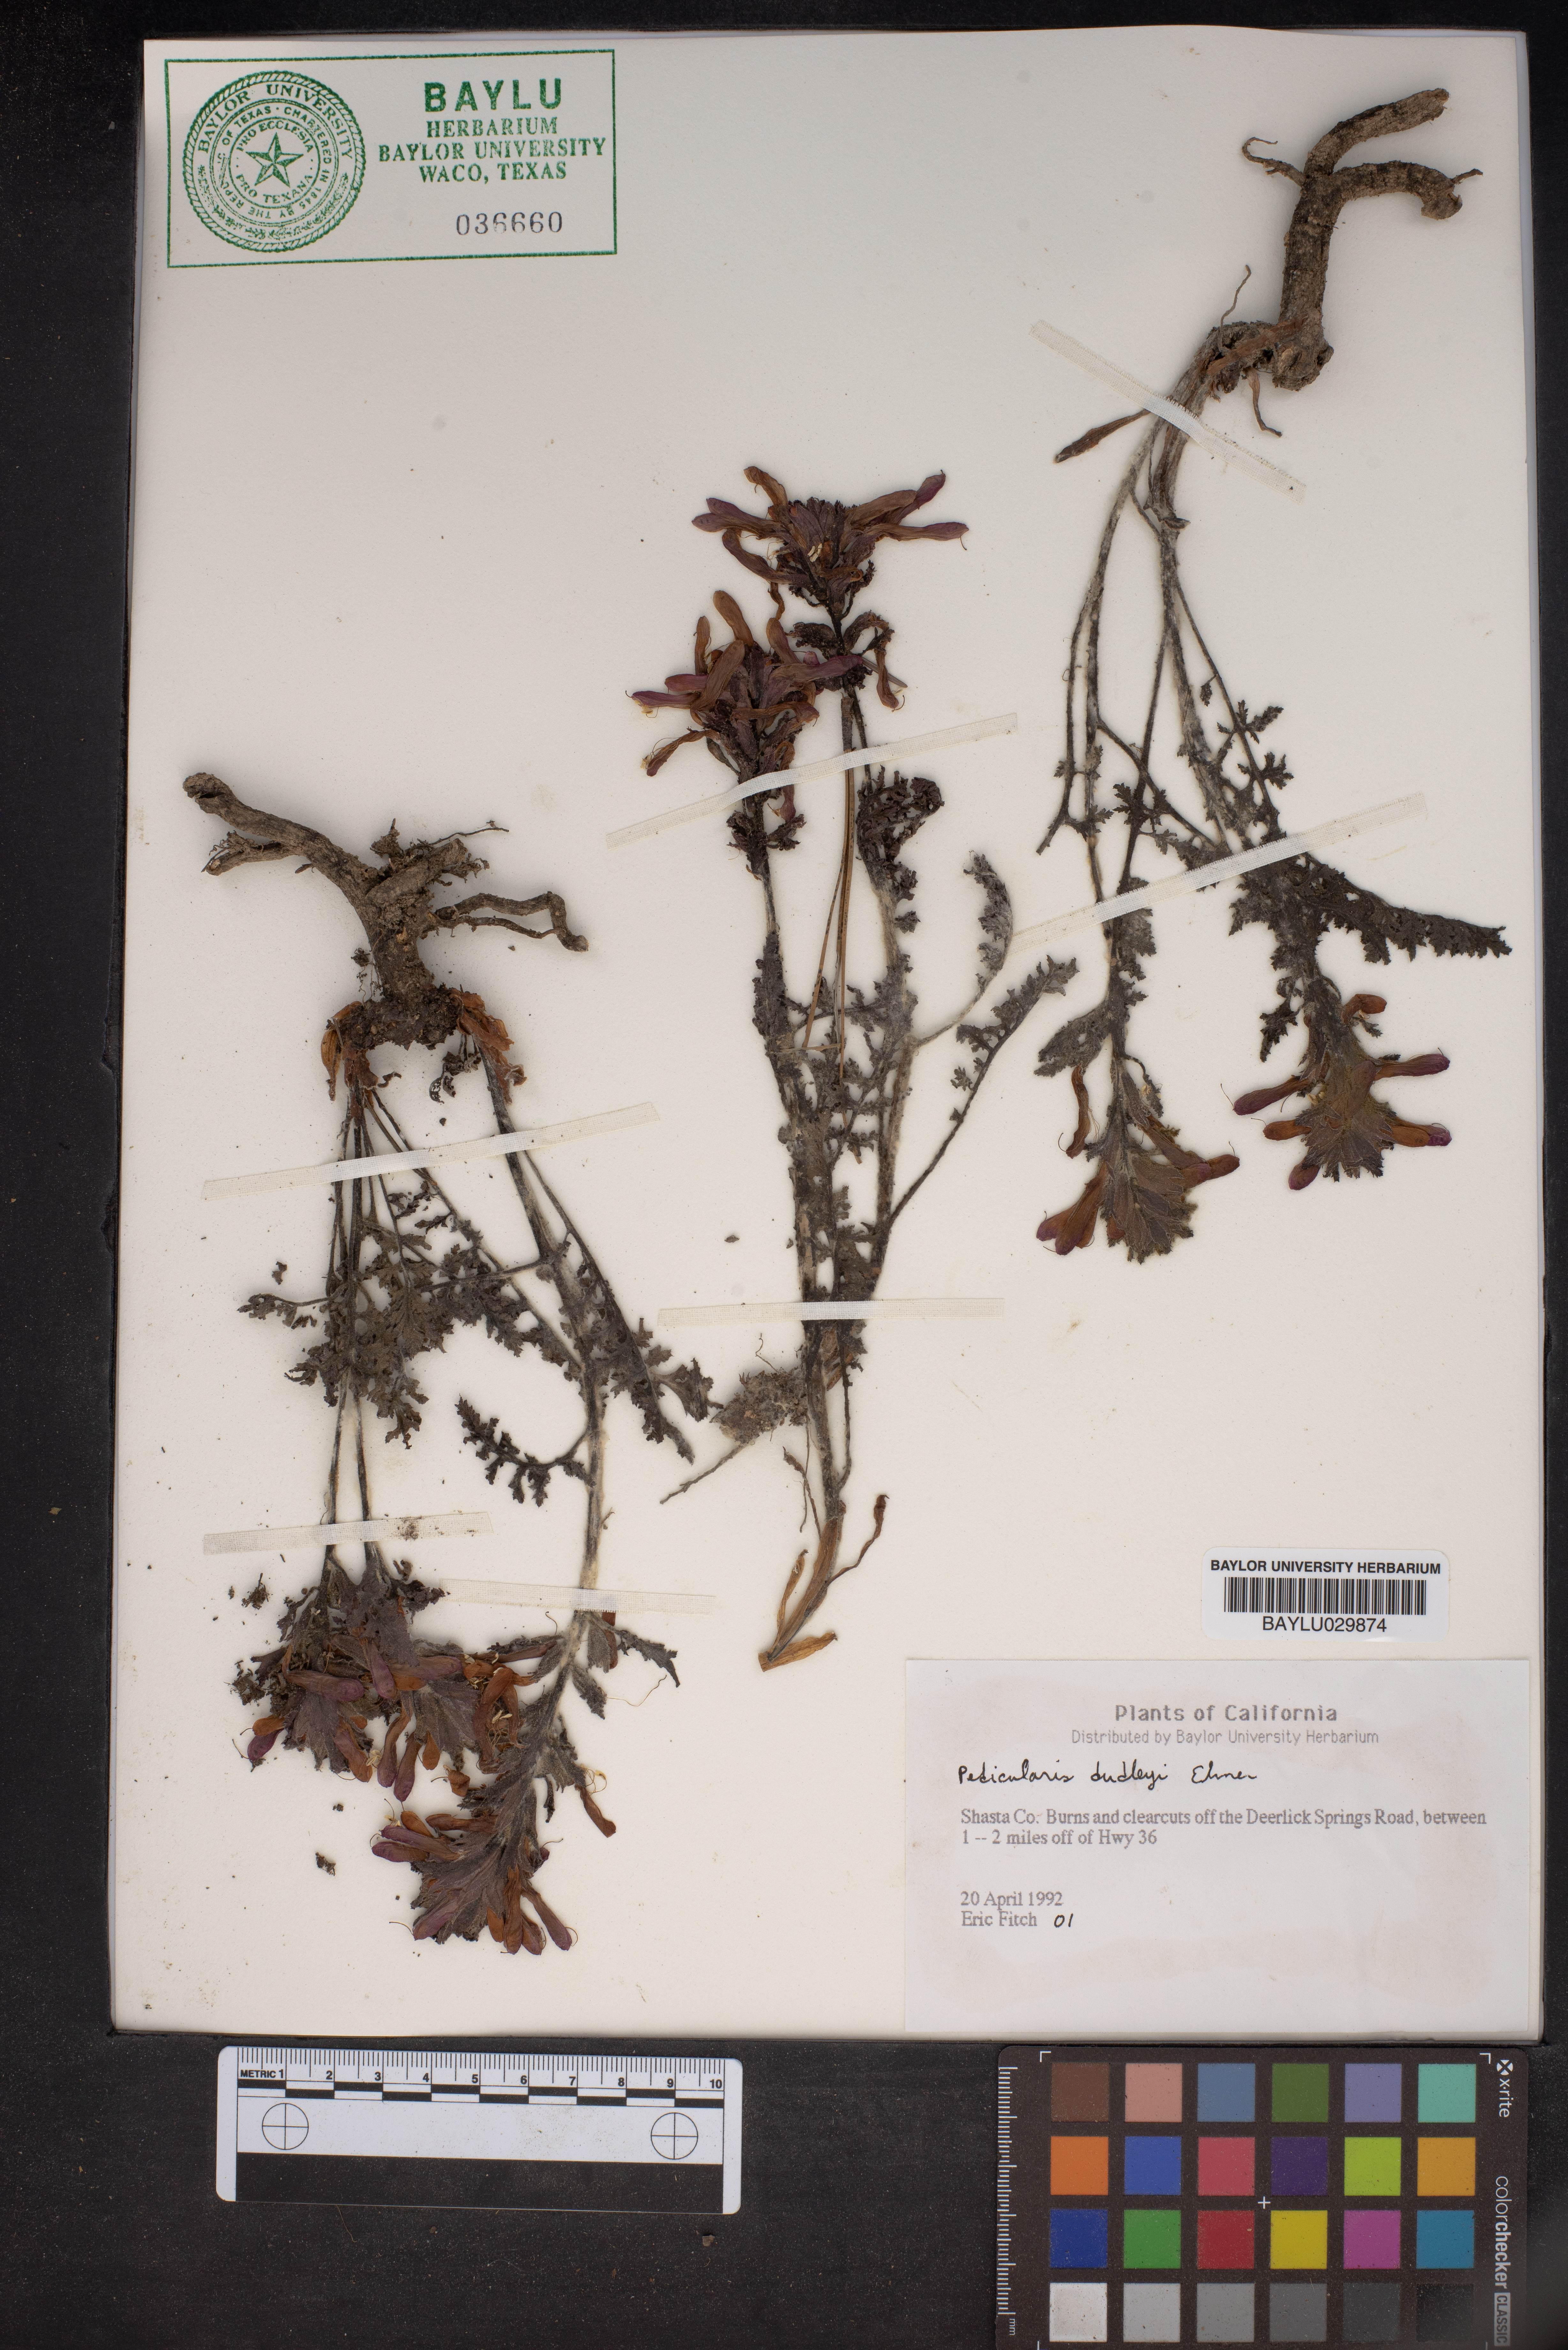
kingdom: Plantae
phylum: Tracheophyta
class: Magnoliopsida
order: Lamiales
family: Orobanchaceae
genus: Pedicularis
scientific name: Pedicularis dudleyi
